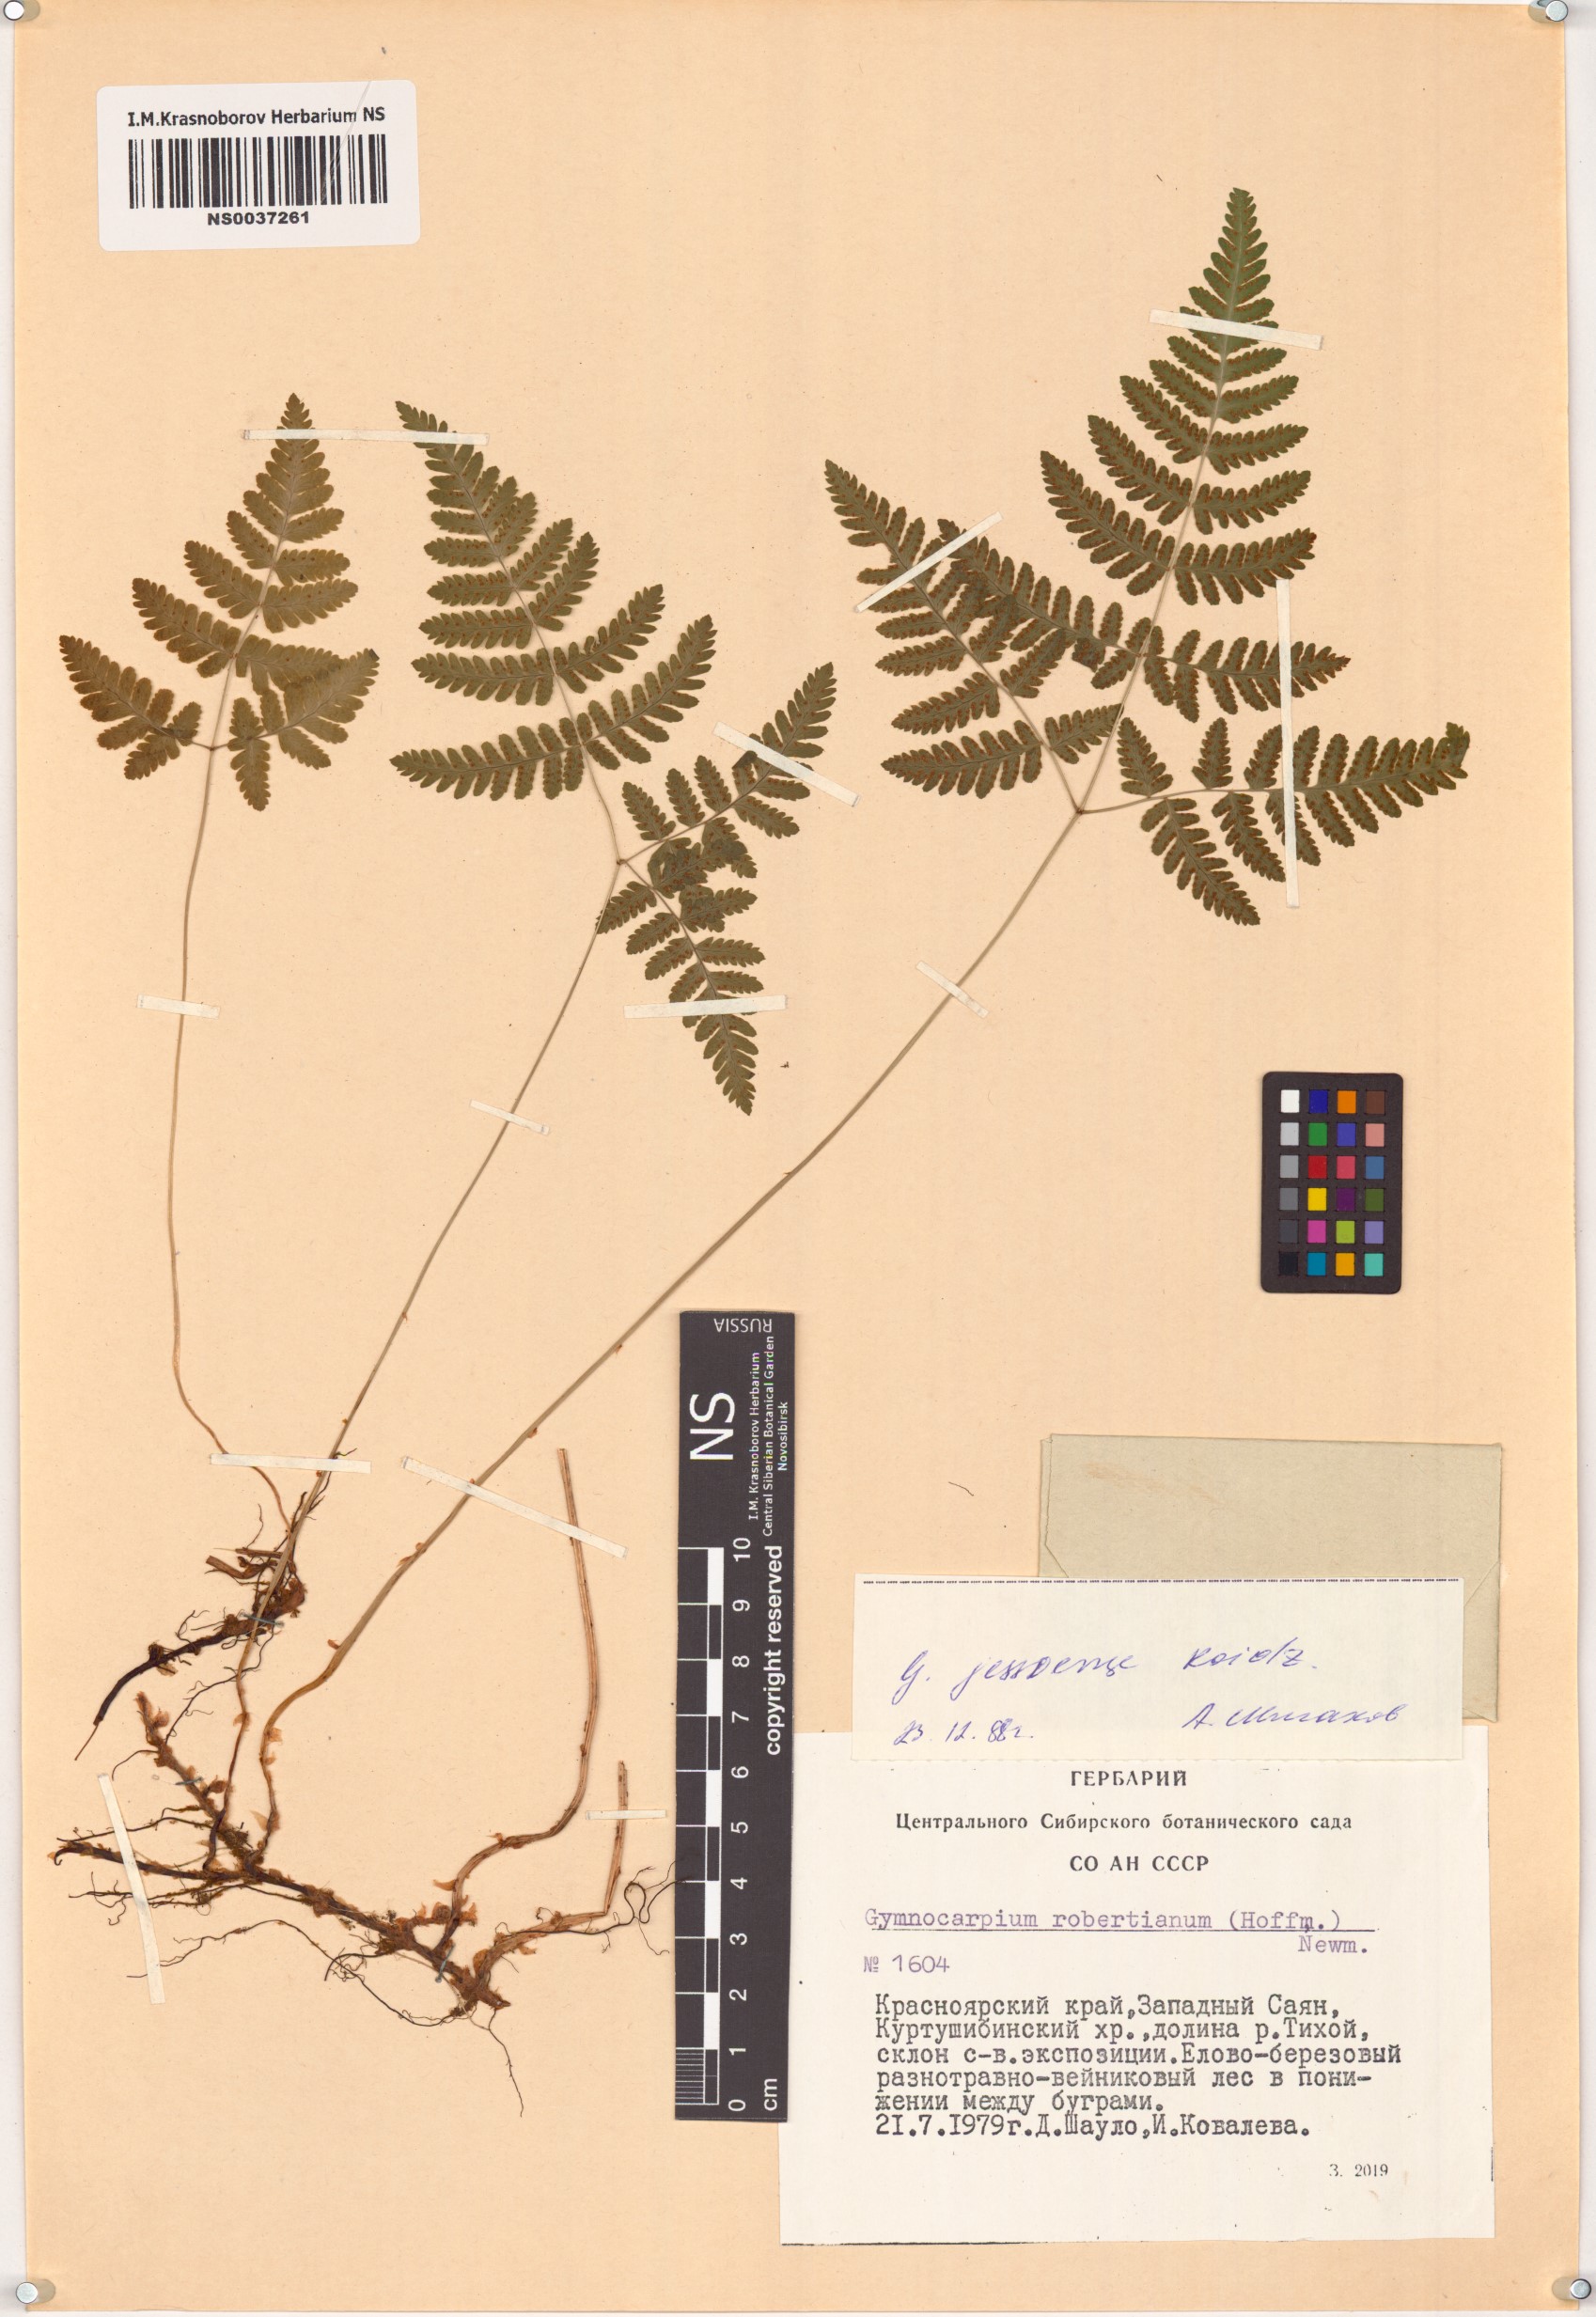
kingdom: Plantae
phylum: Tracheophyta
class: Polypodiopsida
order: Polypodiales
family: Cystopteridaceae
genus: Gymnocarpium
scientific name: Gymnocarpium jessoense
